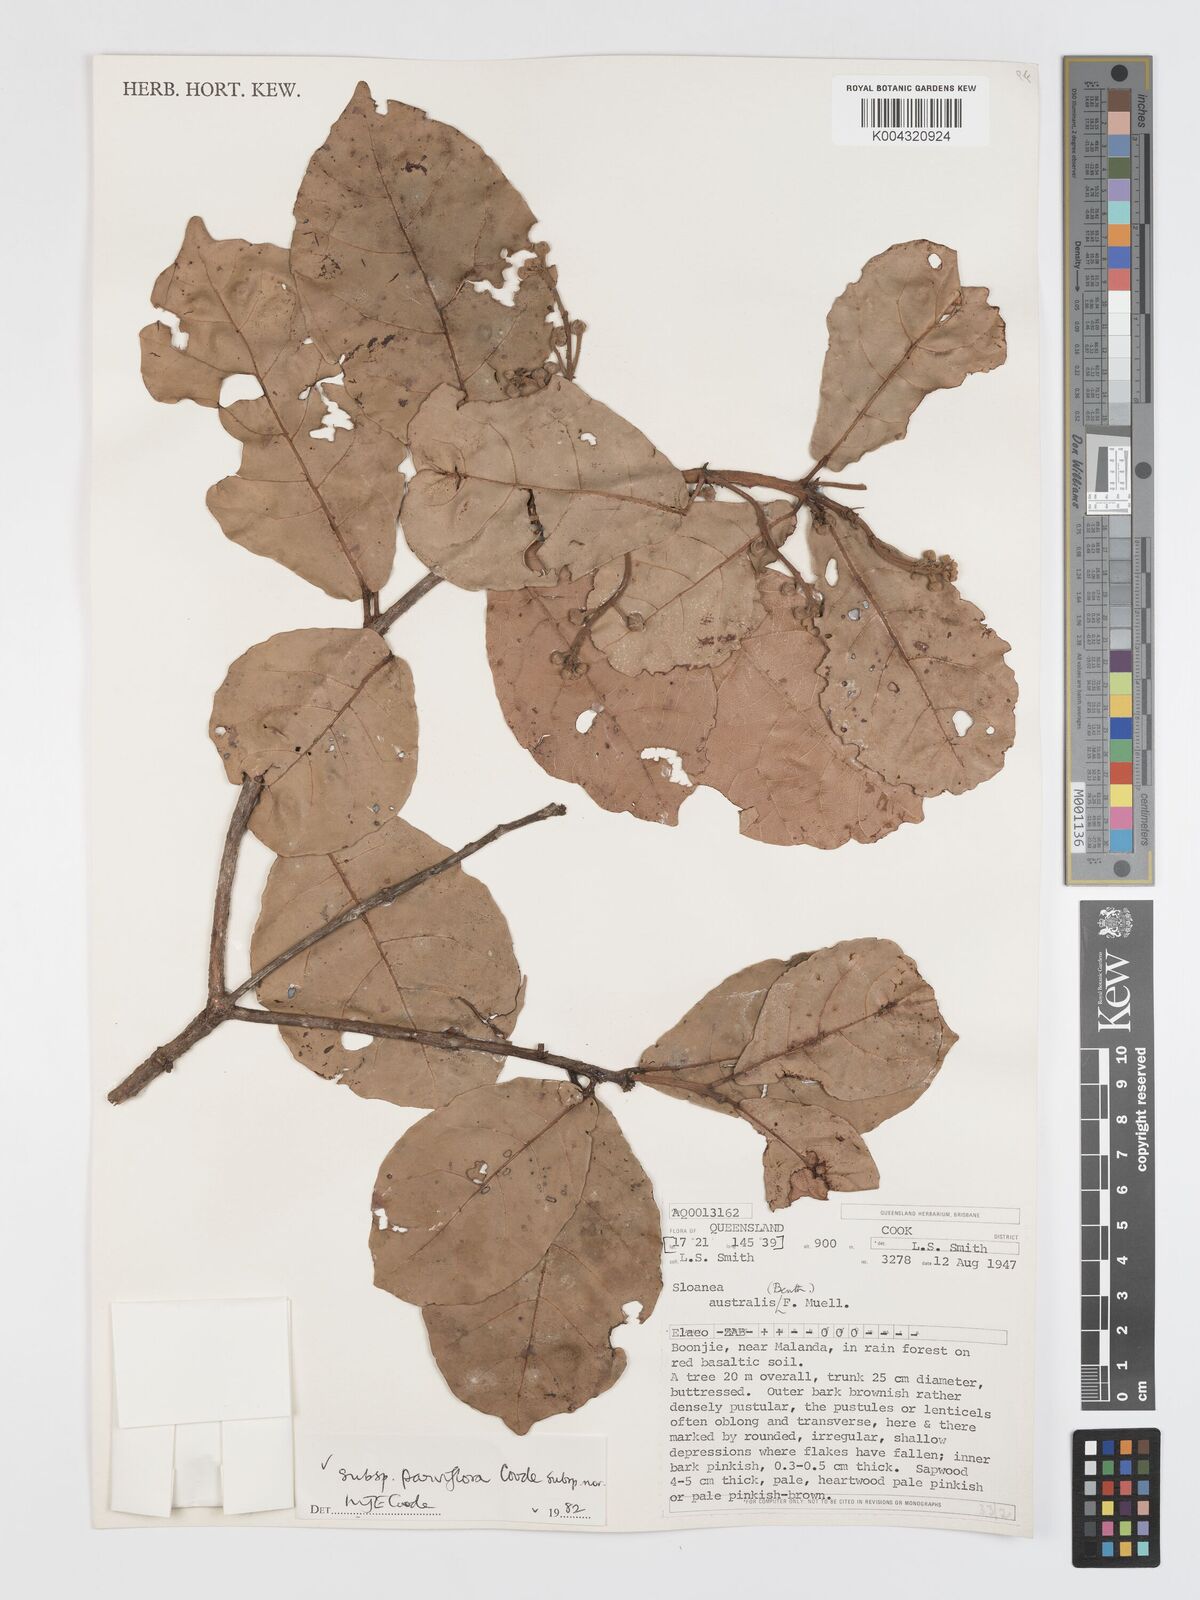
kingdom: Plantae
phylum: Tracheophyta
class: Magnoliopsida
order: Oxalidales
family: Elaeocarpaceae
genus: Sloanea
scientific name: Sloanea australis
